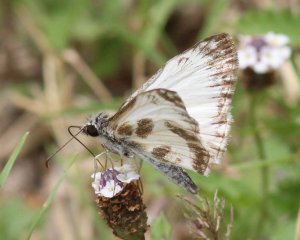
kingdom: Animalia
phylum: Arthropoda
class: Insecta
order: Lepidoptera
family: Hesperiidae
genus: Heliopetes
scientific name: Heliopetes macaira
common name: Turk's-cap White-Skipper
